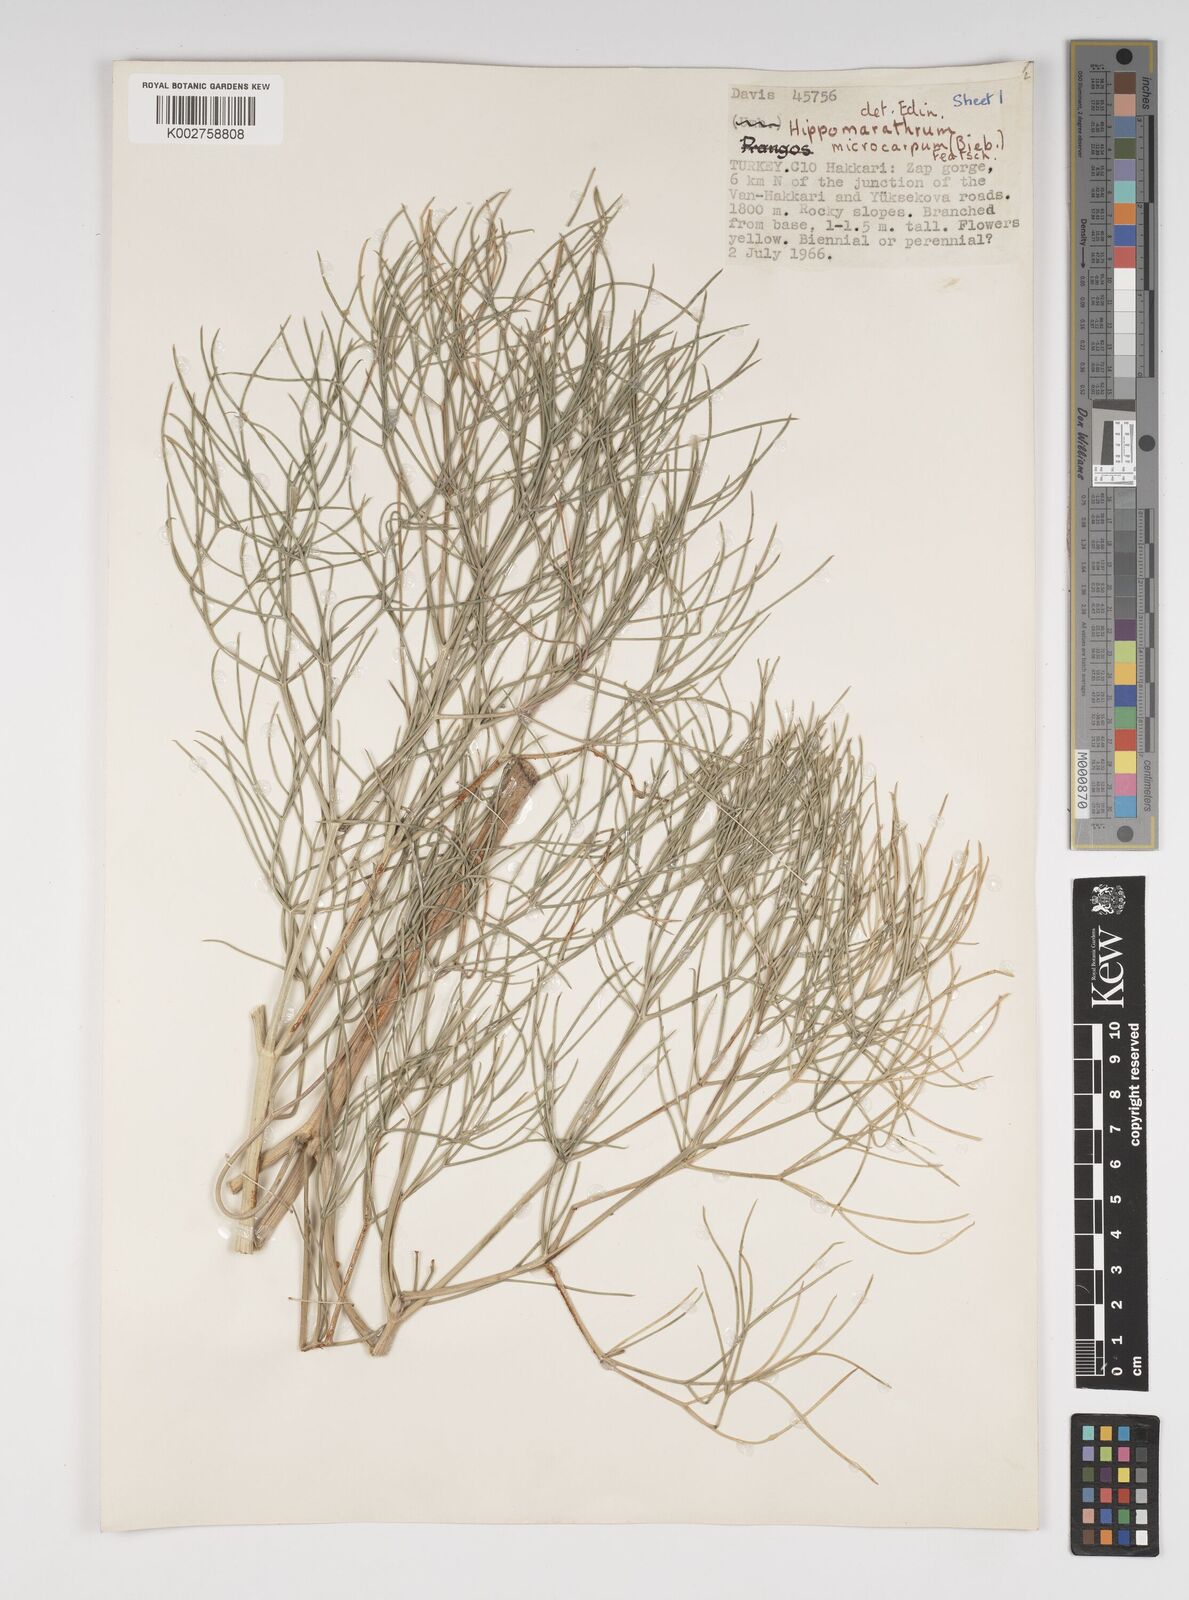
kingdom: Plantae
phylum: Tracheophyta
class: Magnoliopsida
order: Apiales
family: Apiaceae
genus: Bilacunaria
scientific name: Bilacunaria microcarpa
